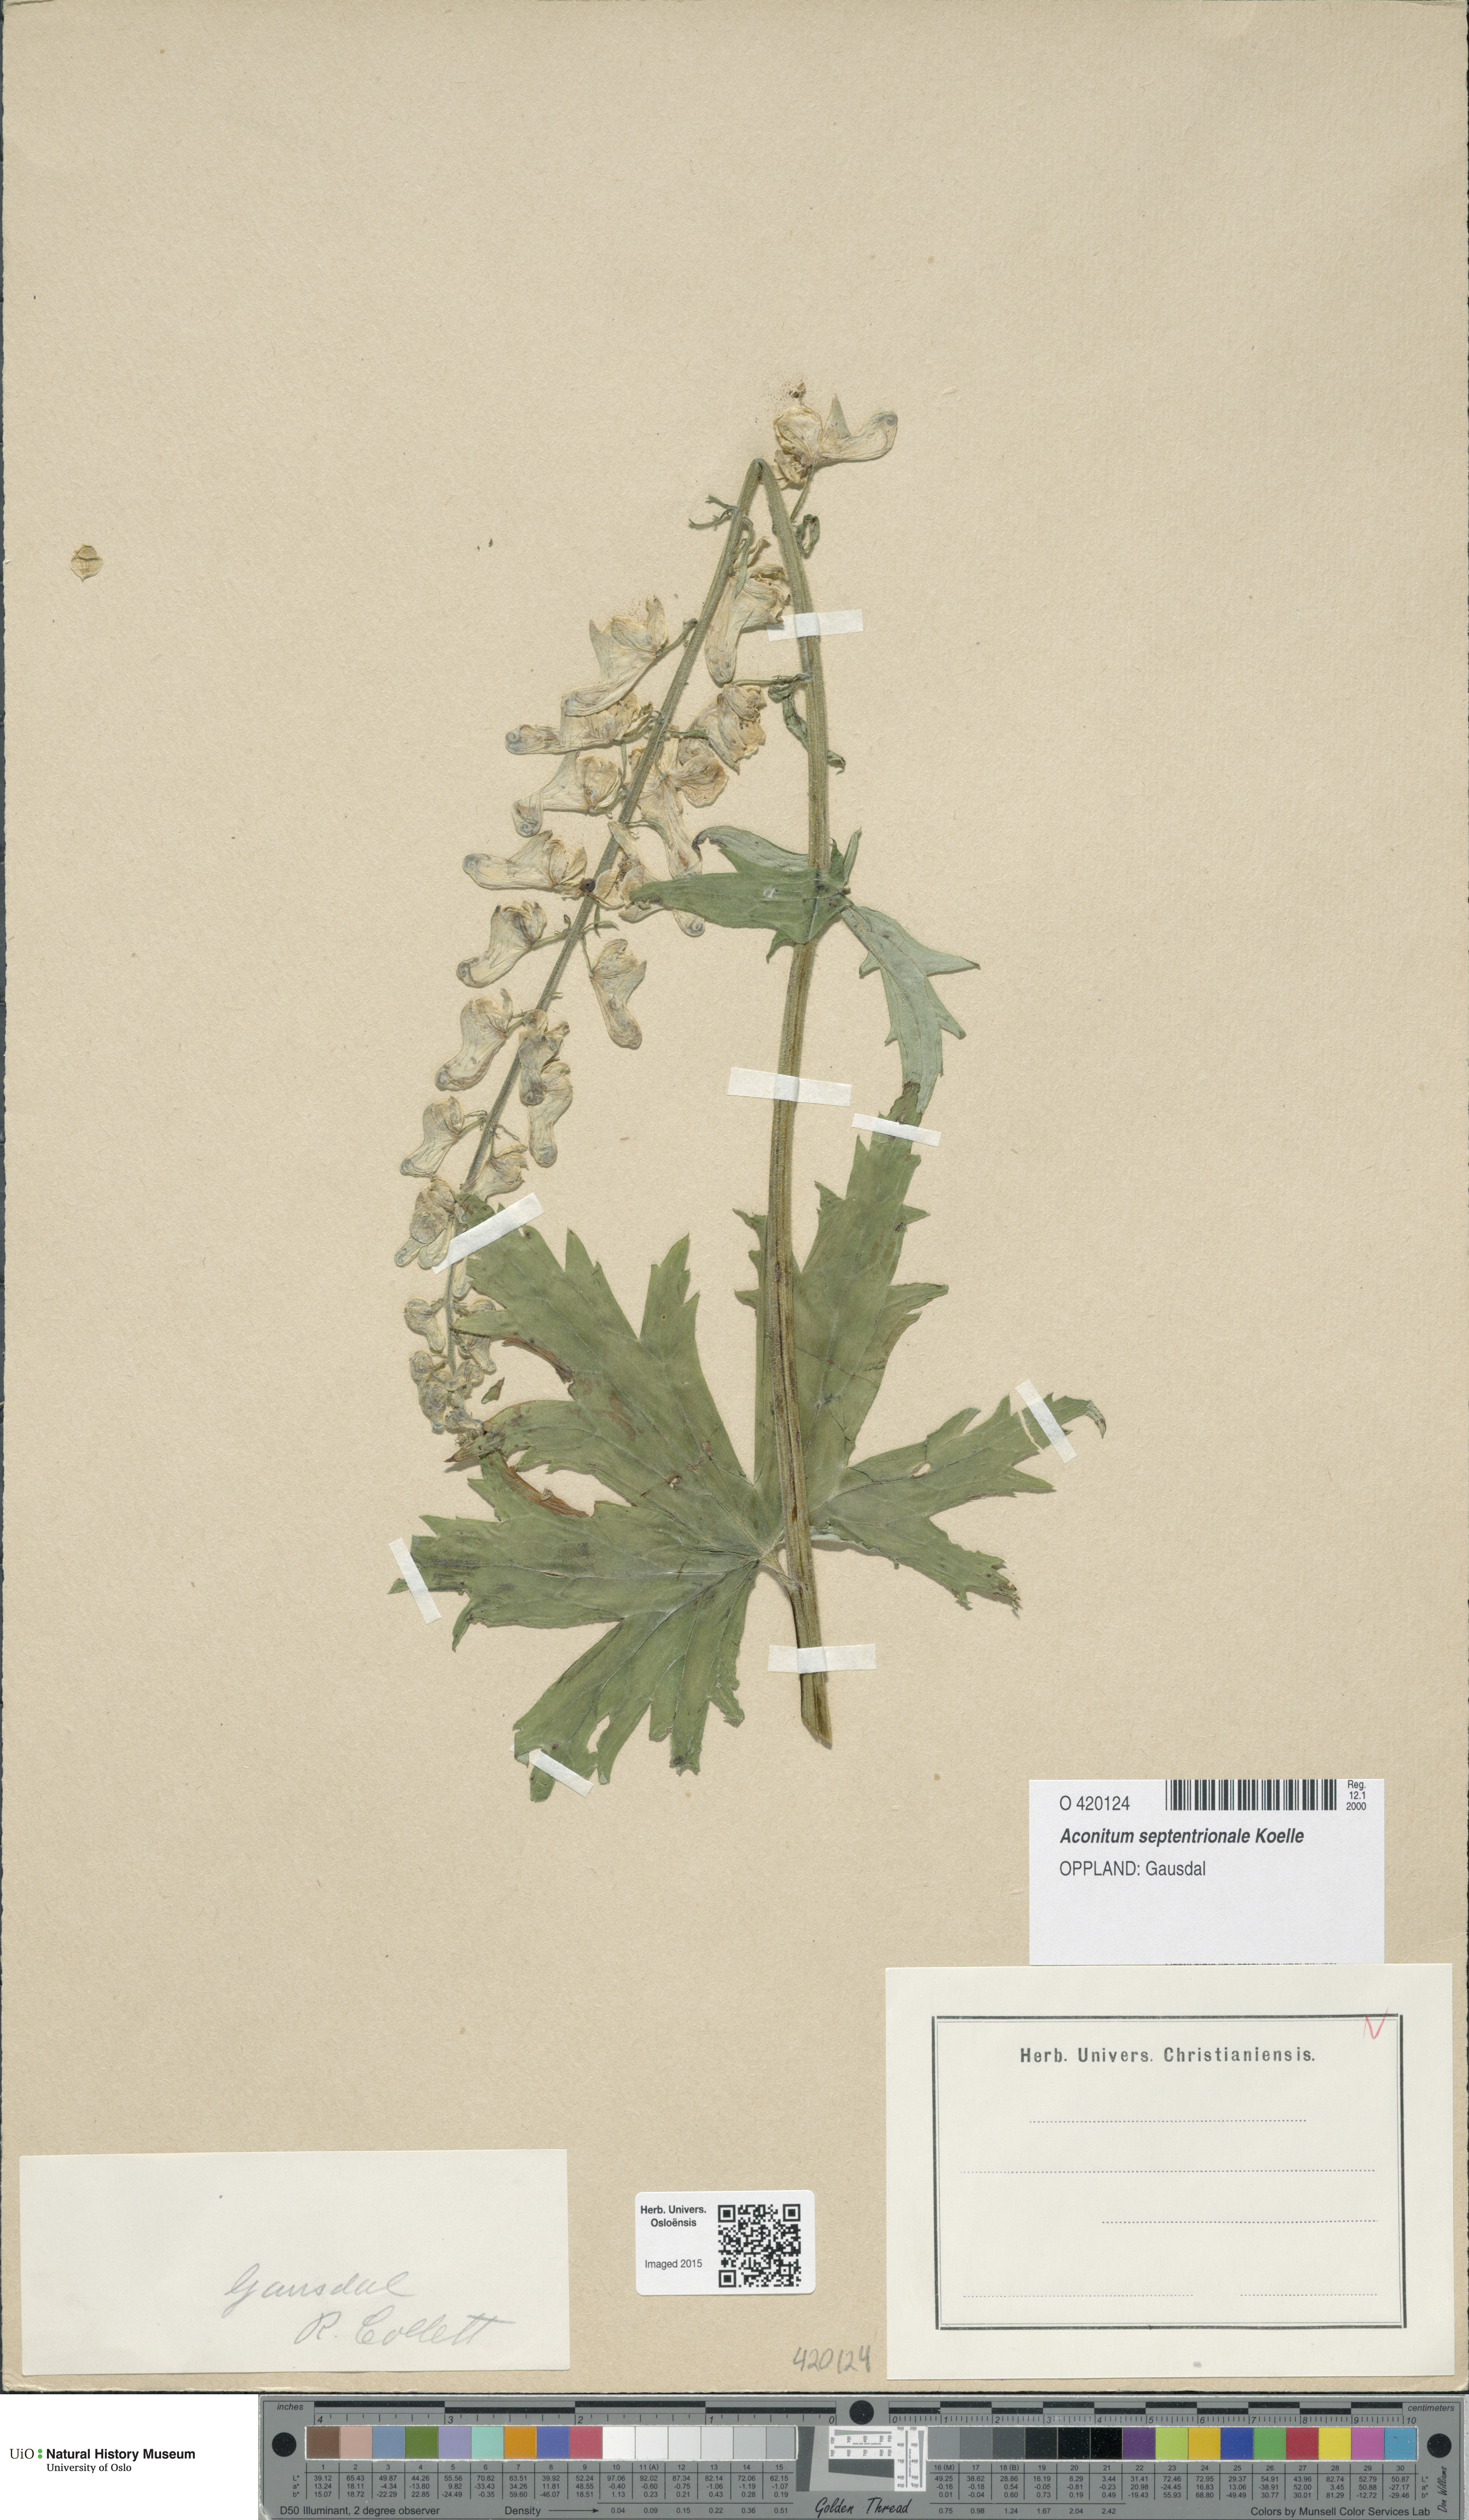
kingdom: Plantae
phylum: Tracheophyta
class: Magnoliopsida
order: Ranunculales
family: Ranunculaceae
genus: Aconitum
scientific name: Aconitum septentrionale
